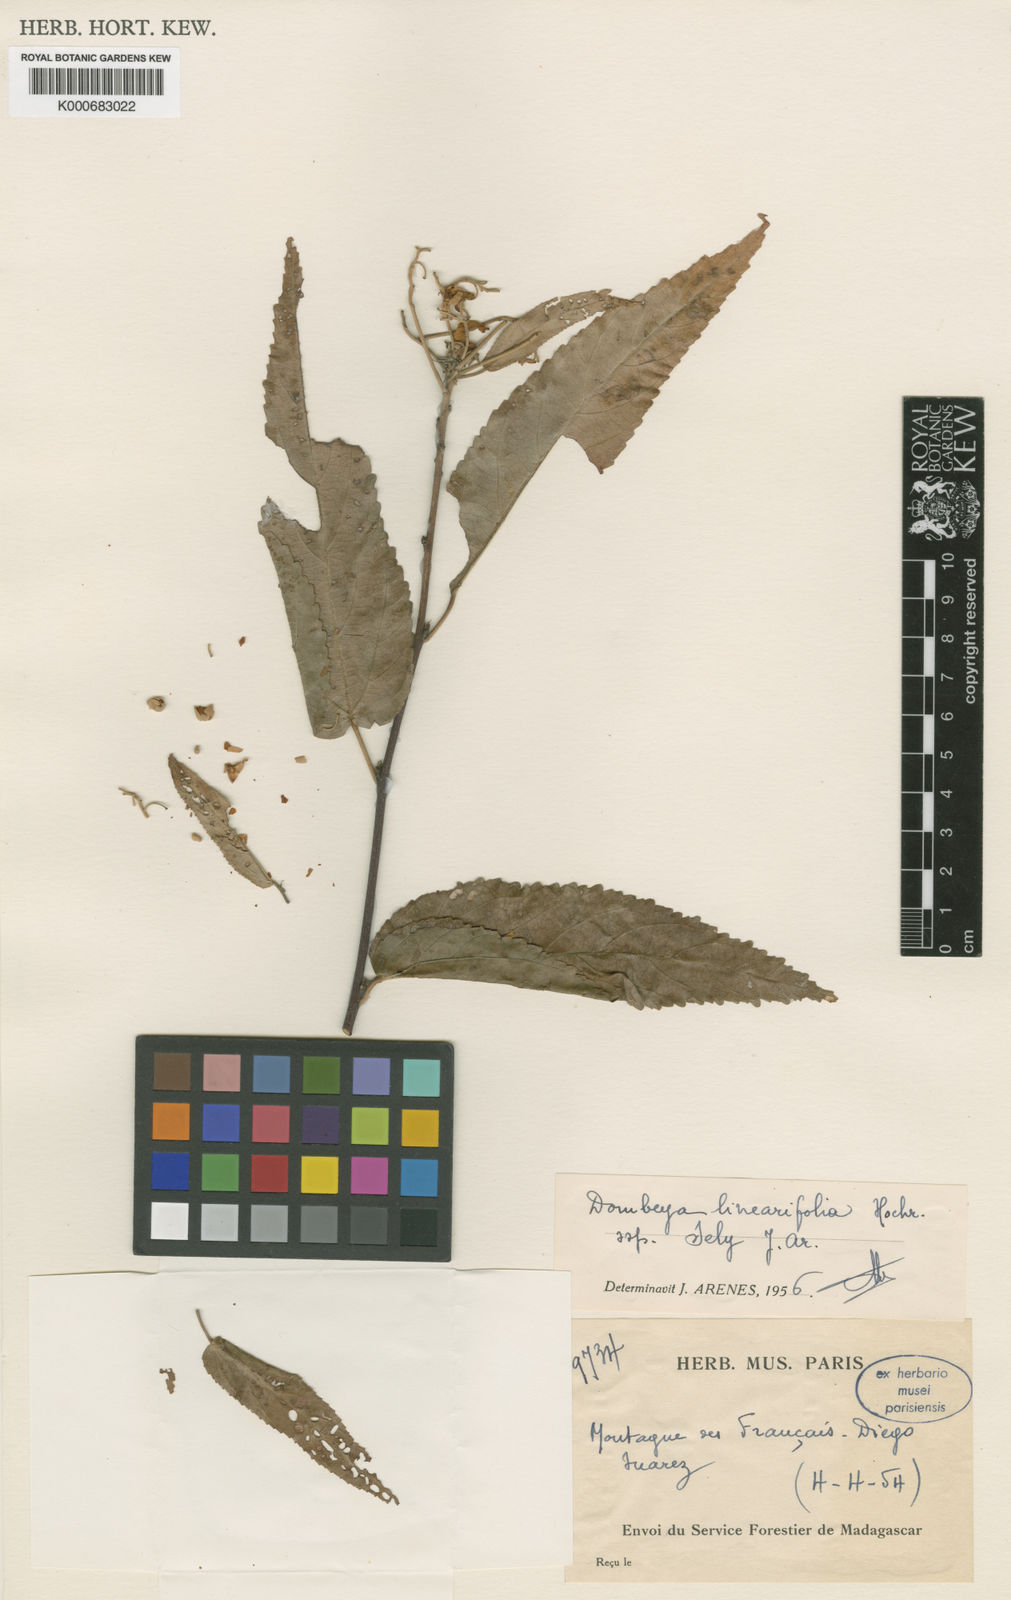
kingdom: Plantae
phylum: Tracheophyta
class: Magnoliopsida
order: Malvales
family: Malvaceae
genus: Eriolaena
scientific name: Eriolaena linearifolia
